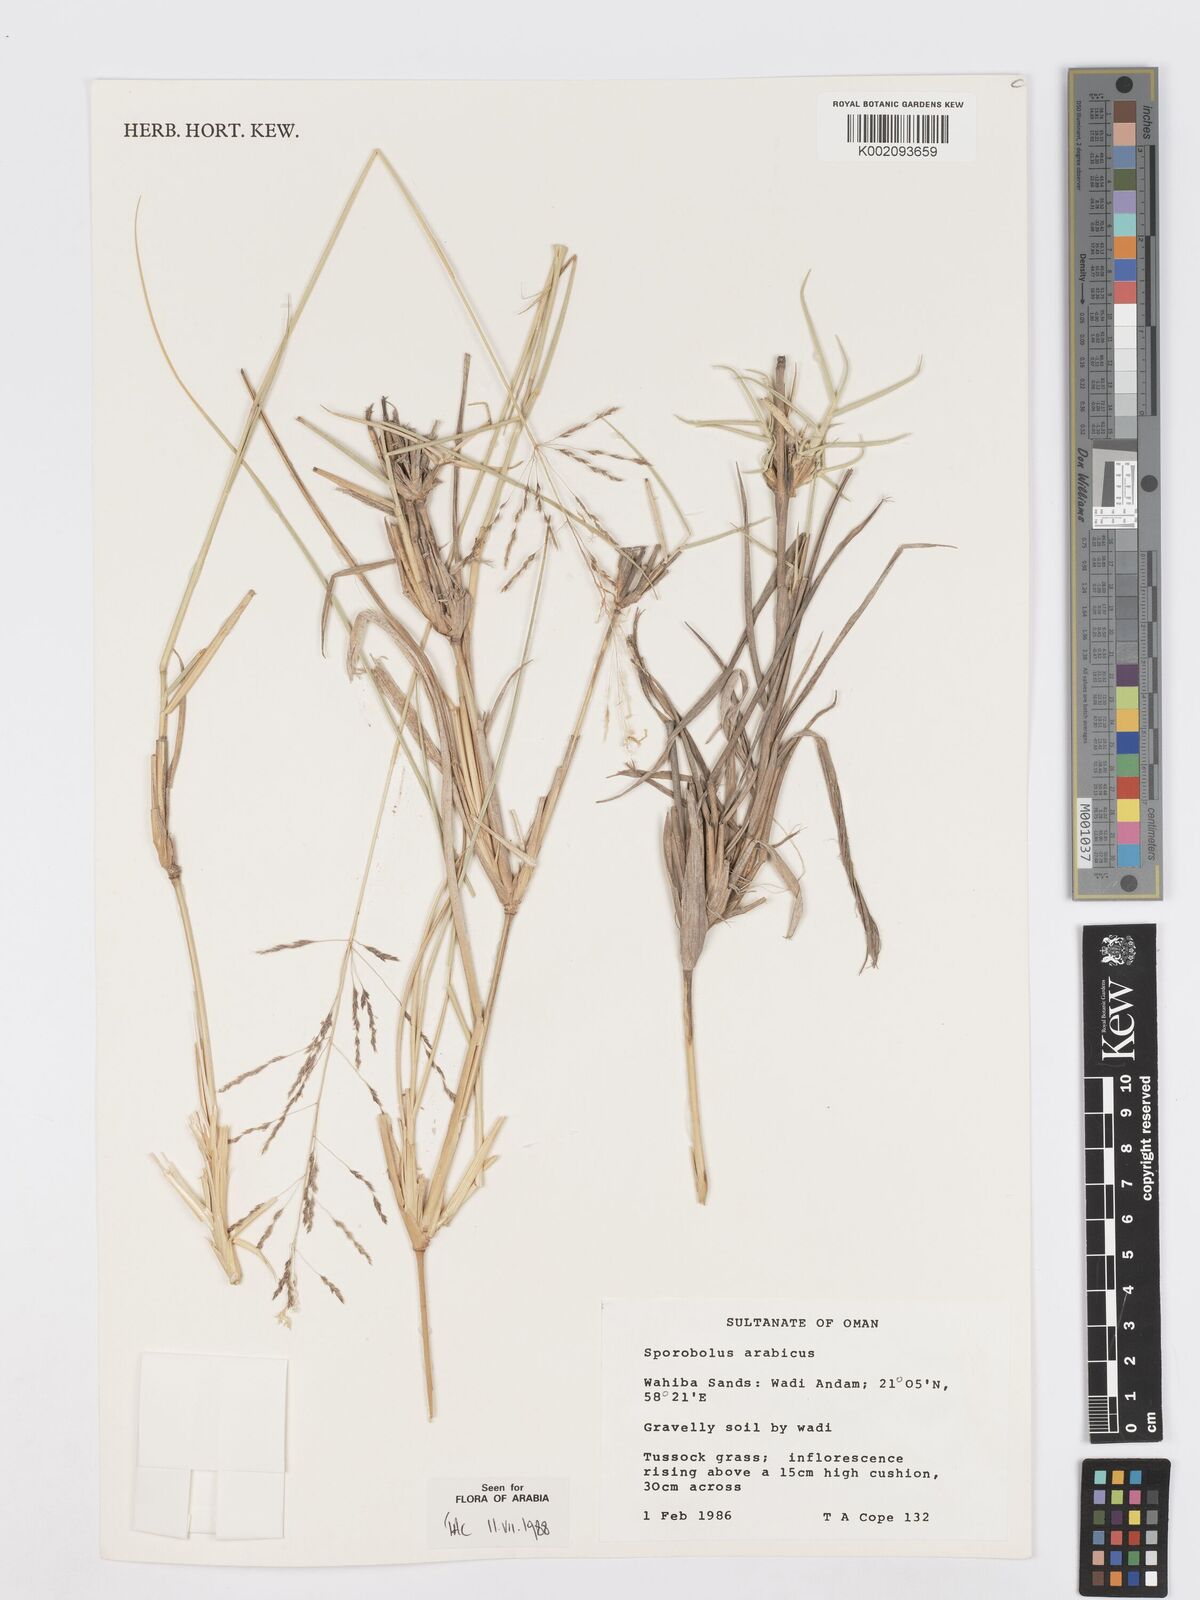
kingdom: Plantae
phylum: Tracheophyta
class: Liliopsida
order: Poales
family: Poaceae
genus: Sporobolus
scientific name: Sporobolus ioclados
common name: Pan dropseed
